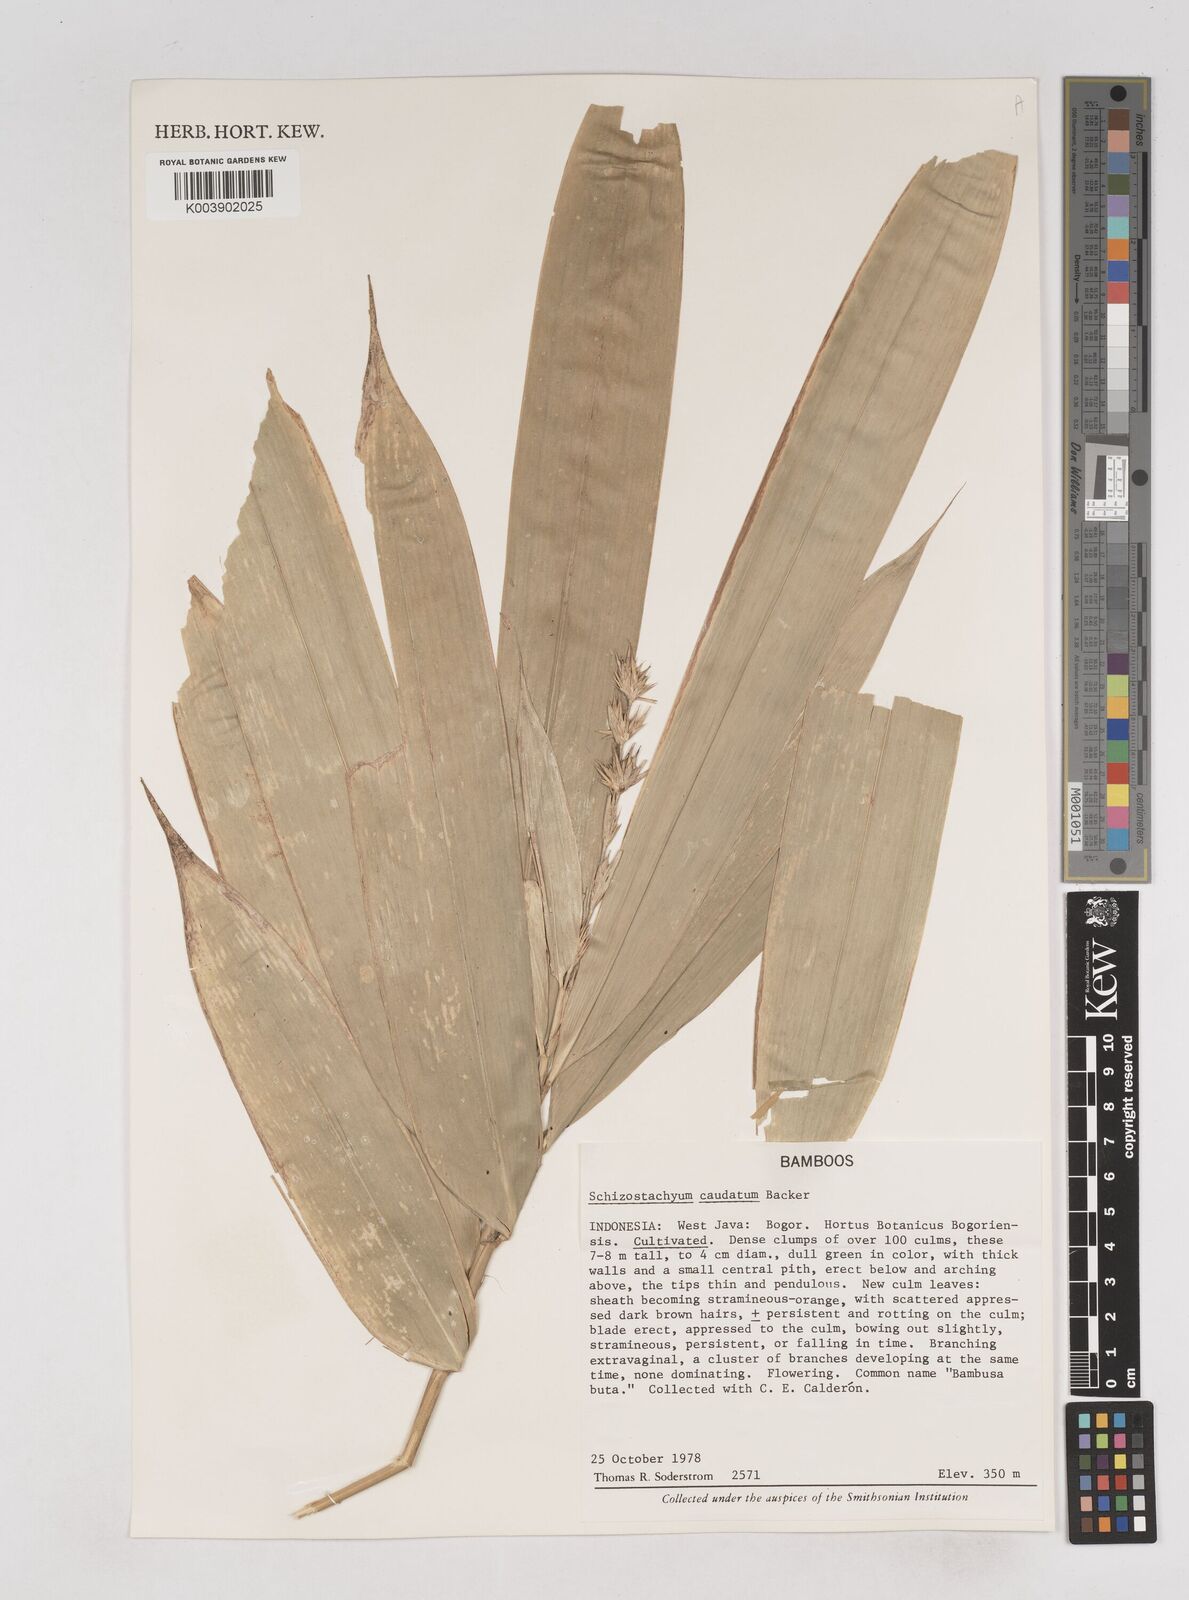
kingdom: Plantae
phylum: Tracheophyta
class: Liliopsida
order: Poales
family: Poaceae
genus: Schizostachyum
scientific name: Schizostachyum caudatum
